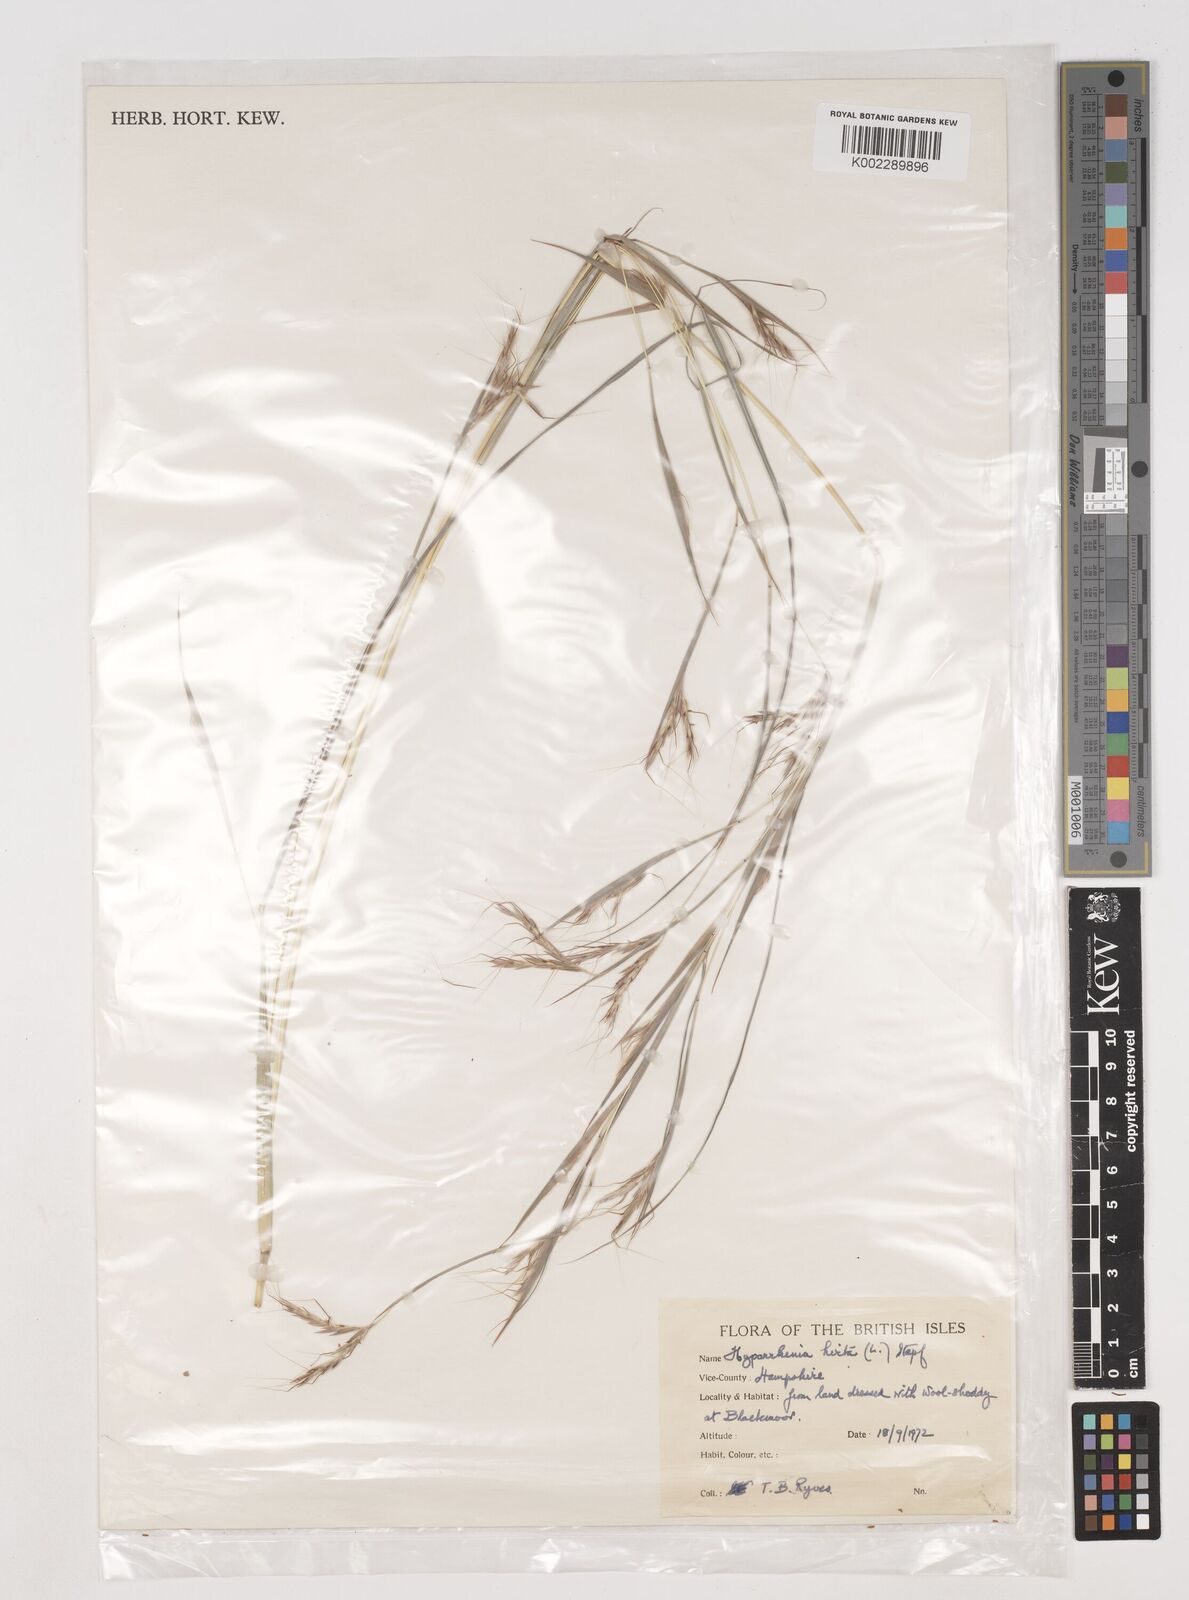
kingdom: Plantae
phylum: Tracheophyta
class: Liliopsida
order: Poales
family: Poaceae
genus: Hyparrhenia
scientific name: Hyparrhenia hirta
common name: Thatching grass
